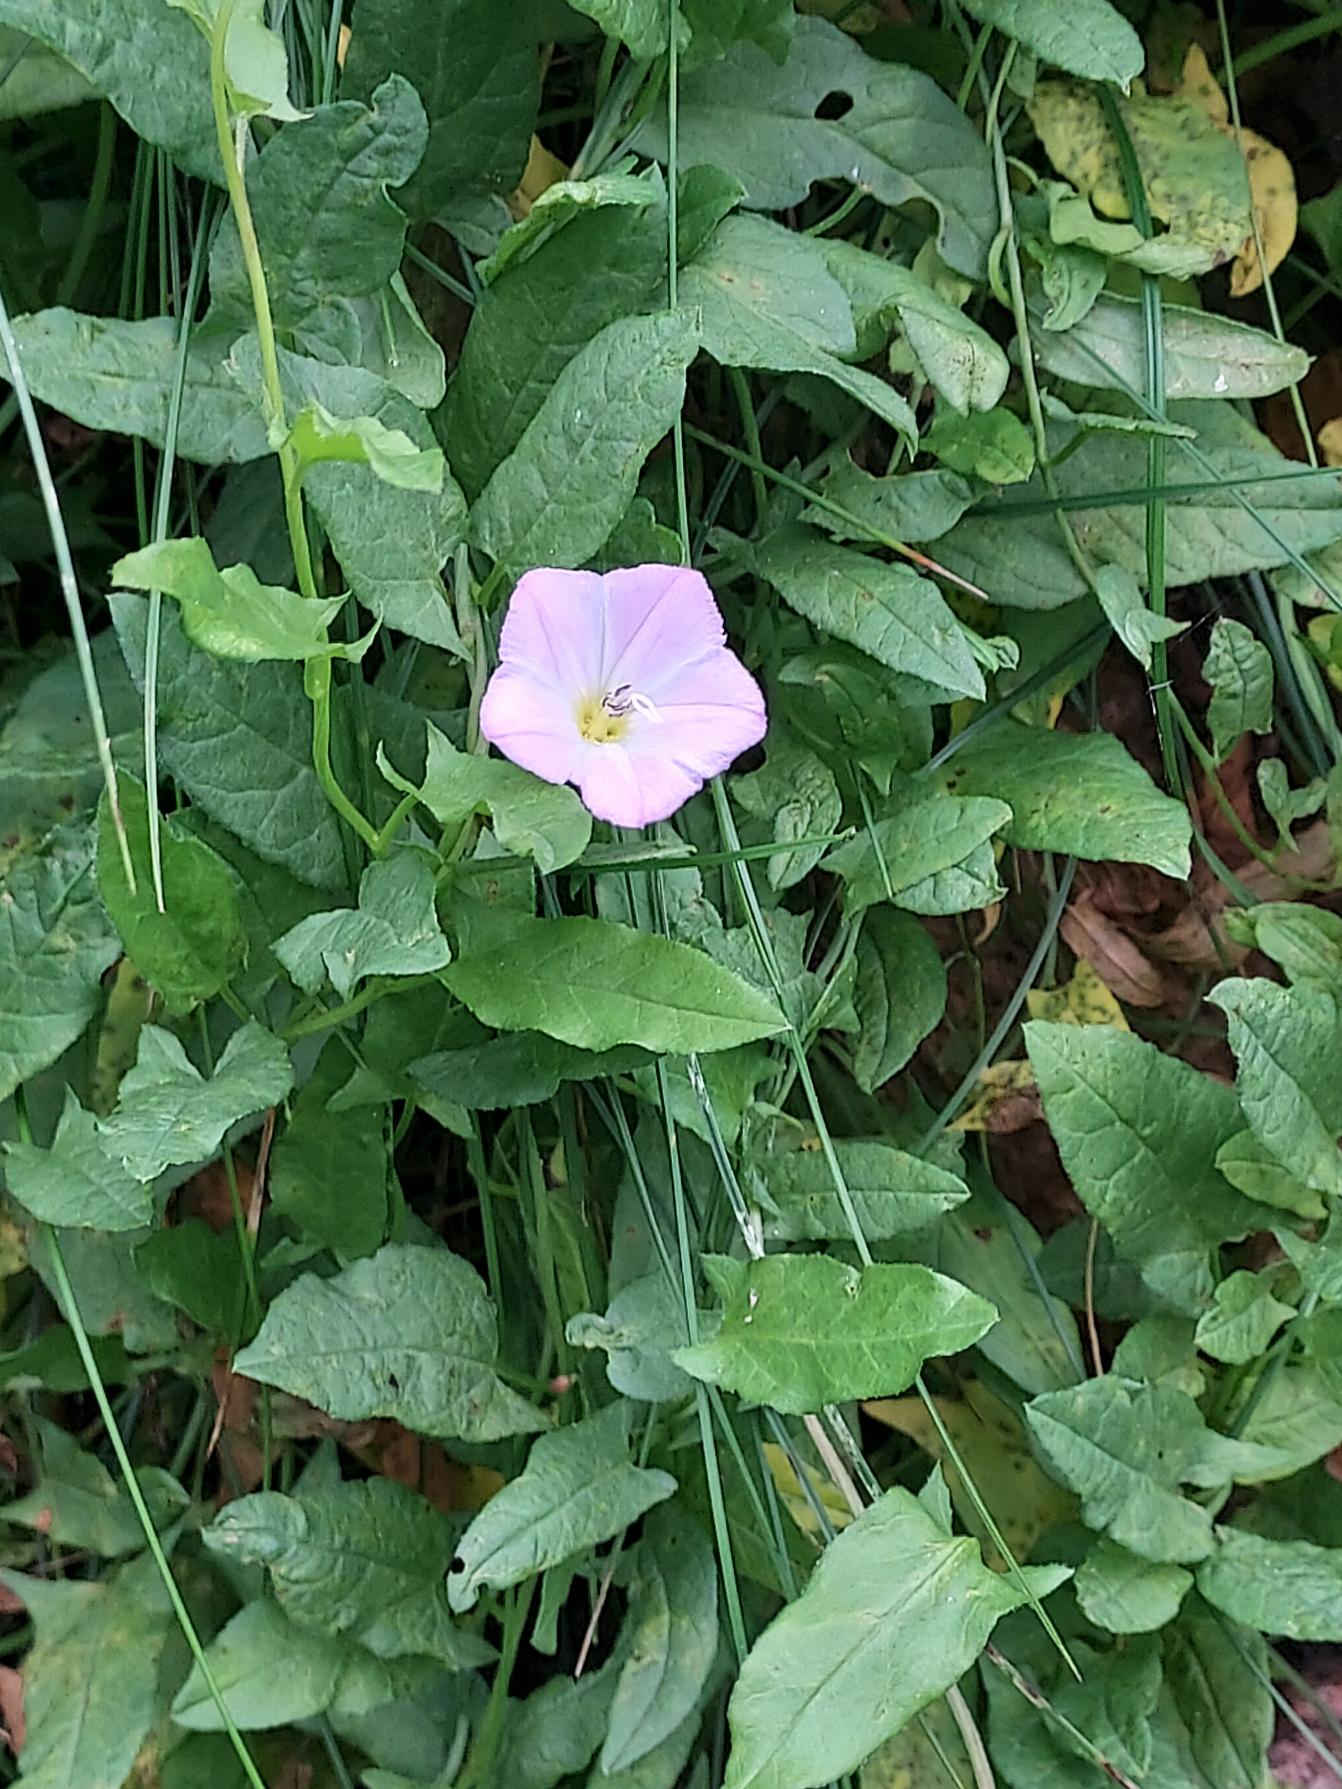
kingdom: Plantae
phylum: Tracheophyta
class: Magnoliopsida
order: Solanales
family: Convolvulaceae
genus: Convolvulus
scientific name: Convolvulus arvensis
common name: Ager-snerle
